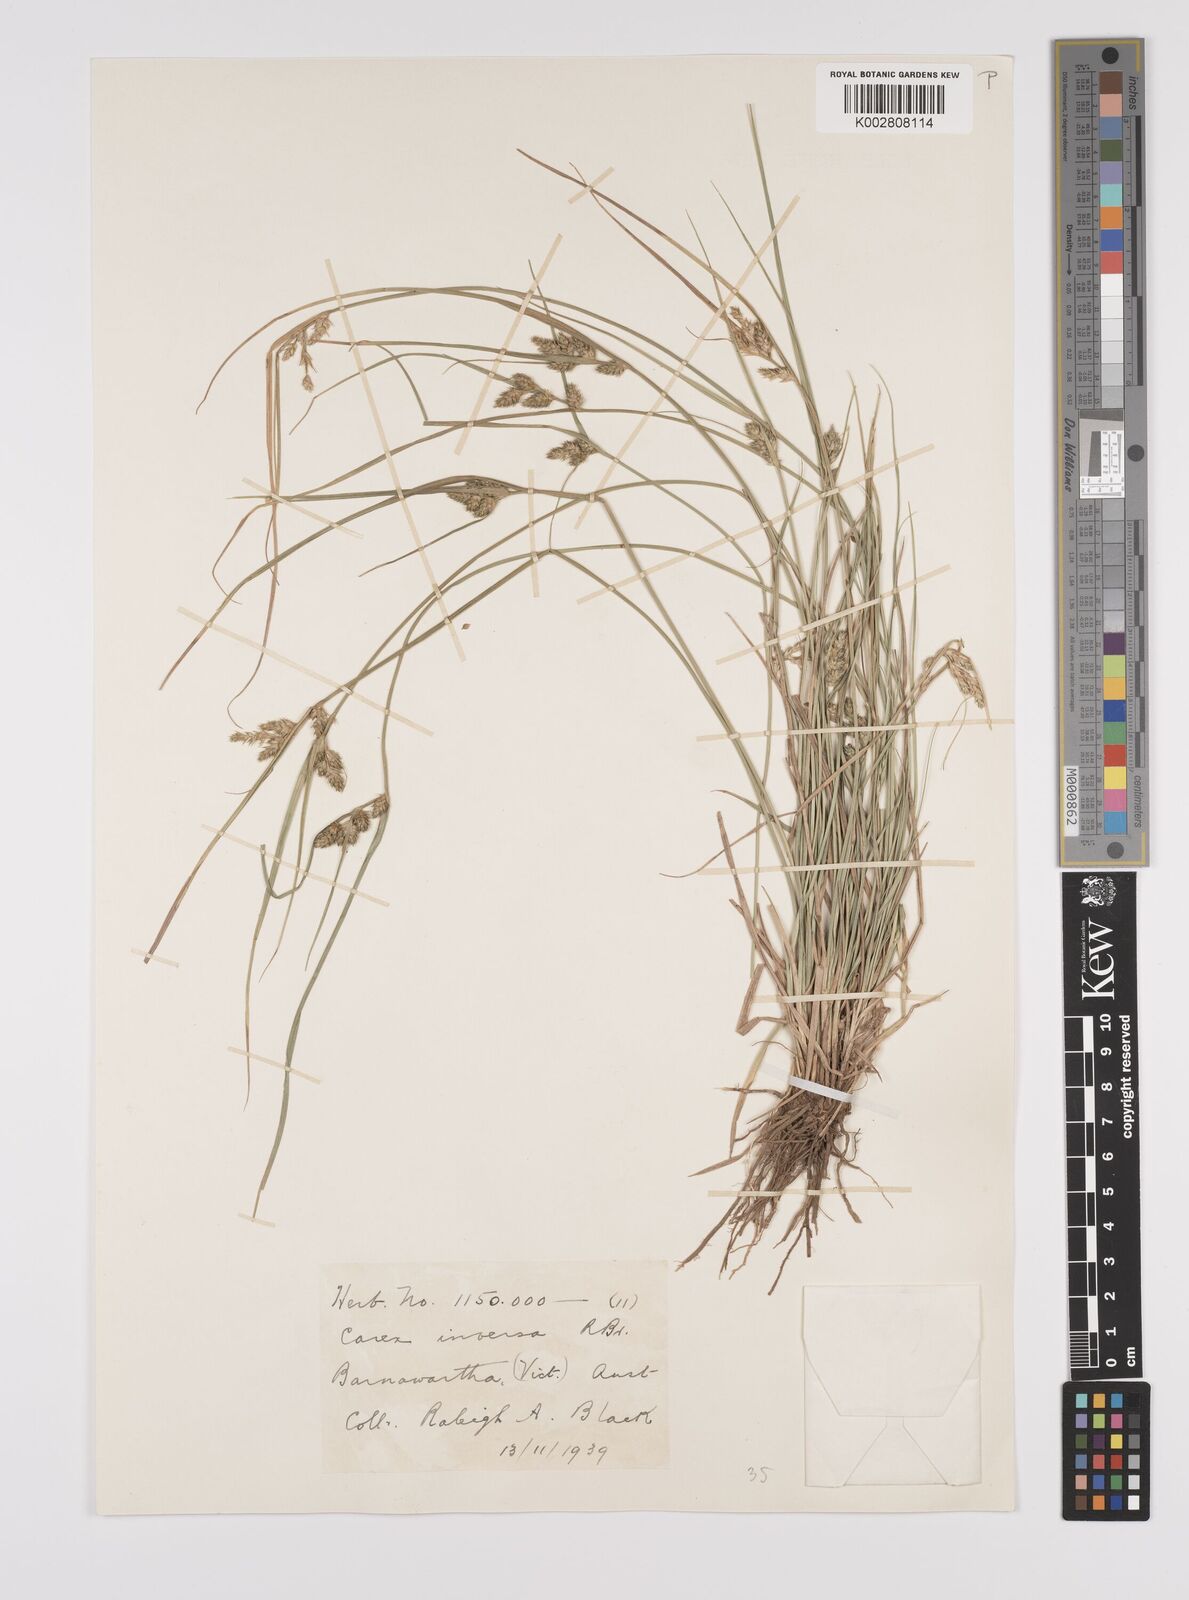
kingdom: Plantae
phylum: Tracheophyta
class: Liliopsida
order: Poales
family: Cyperaceae
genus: Carex
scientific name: Carex inversa
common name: Knob sedge
